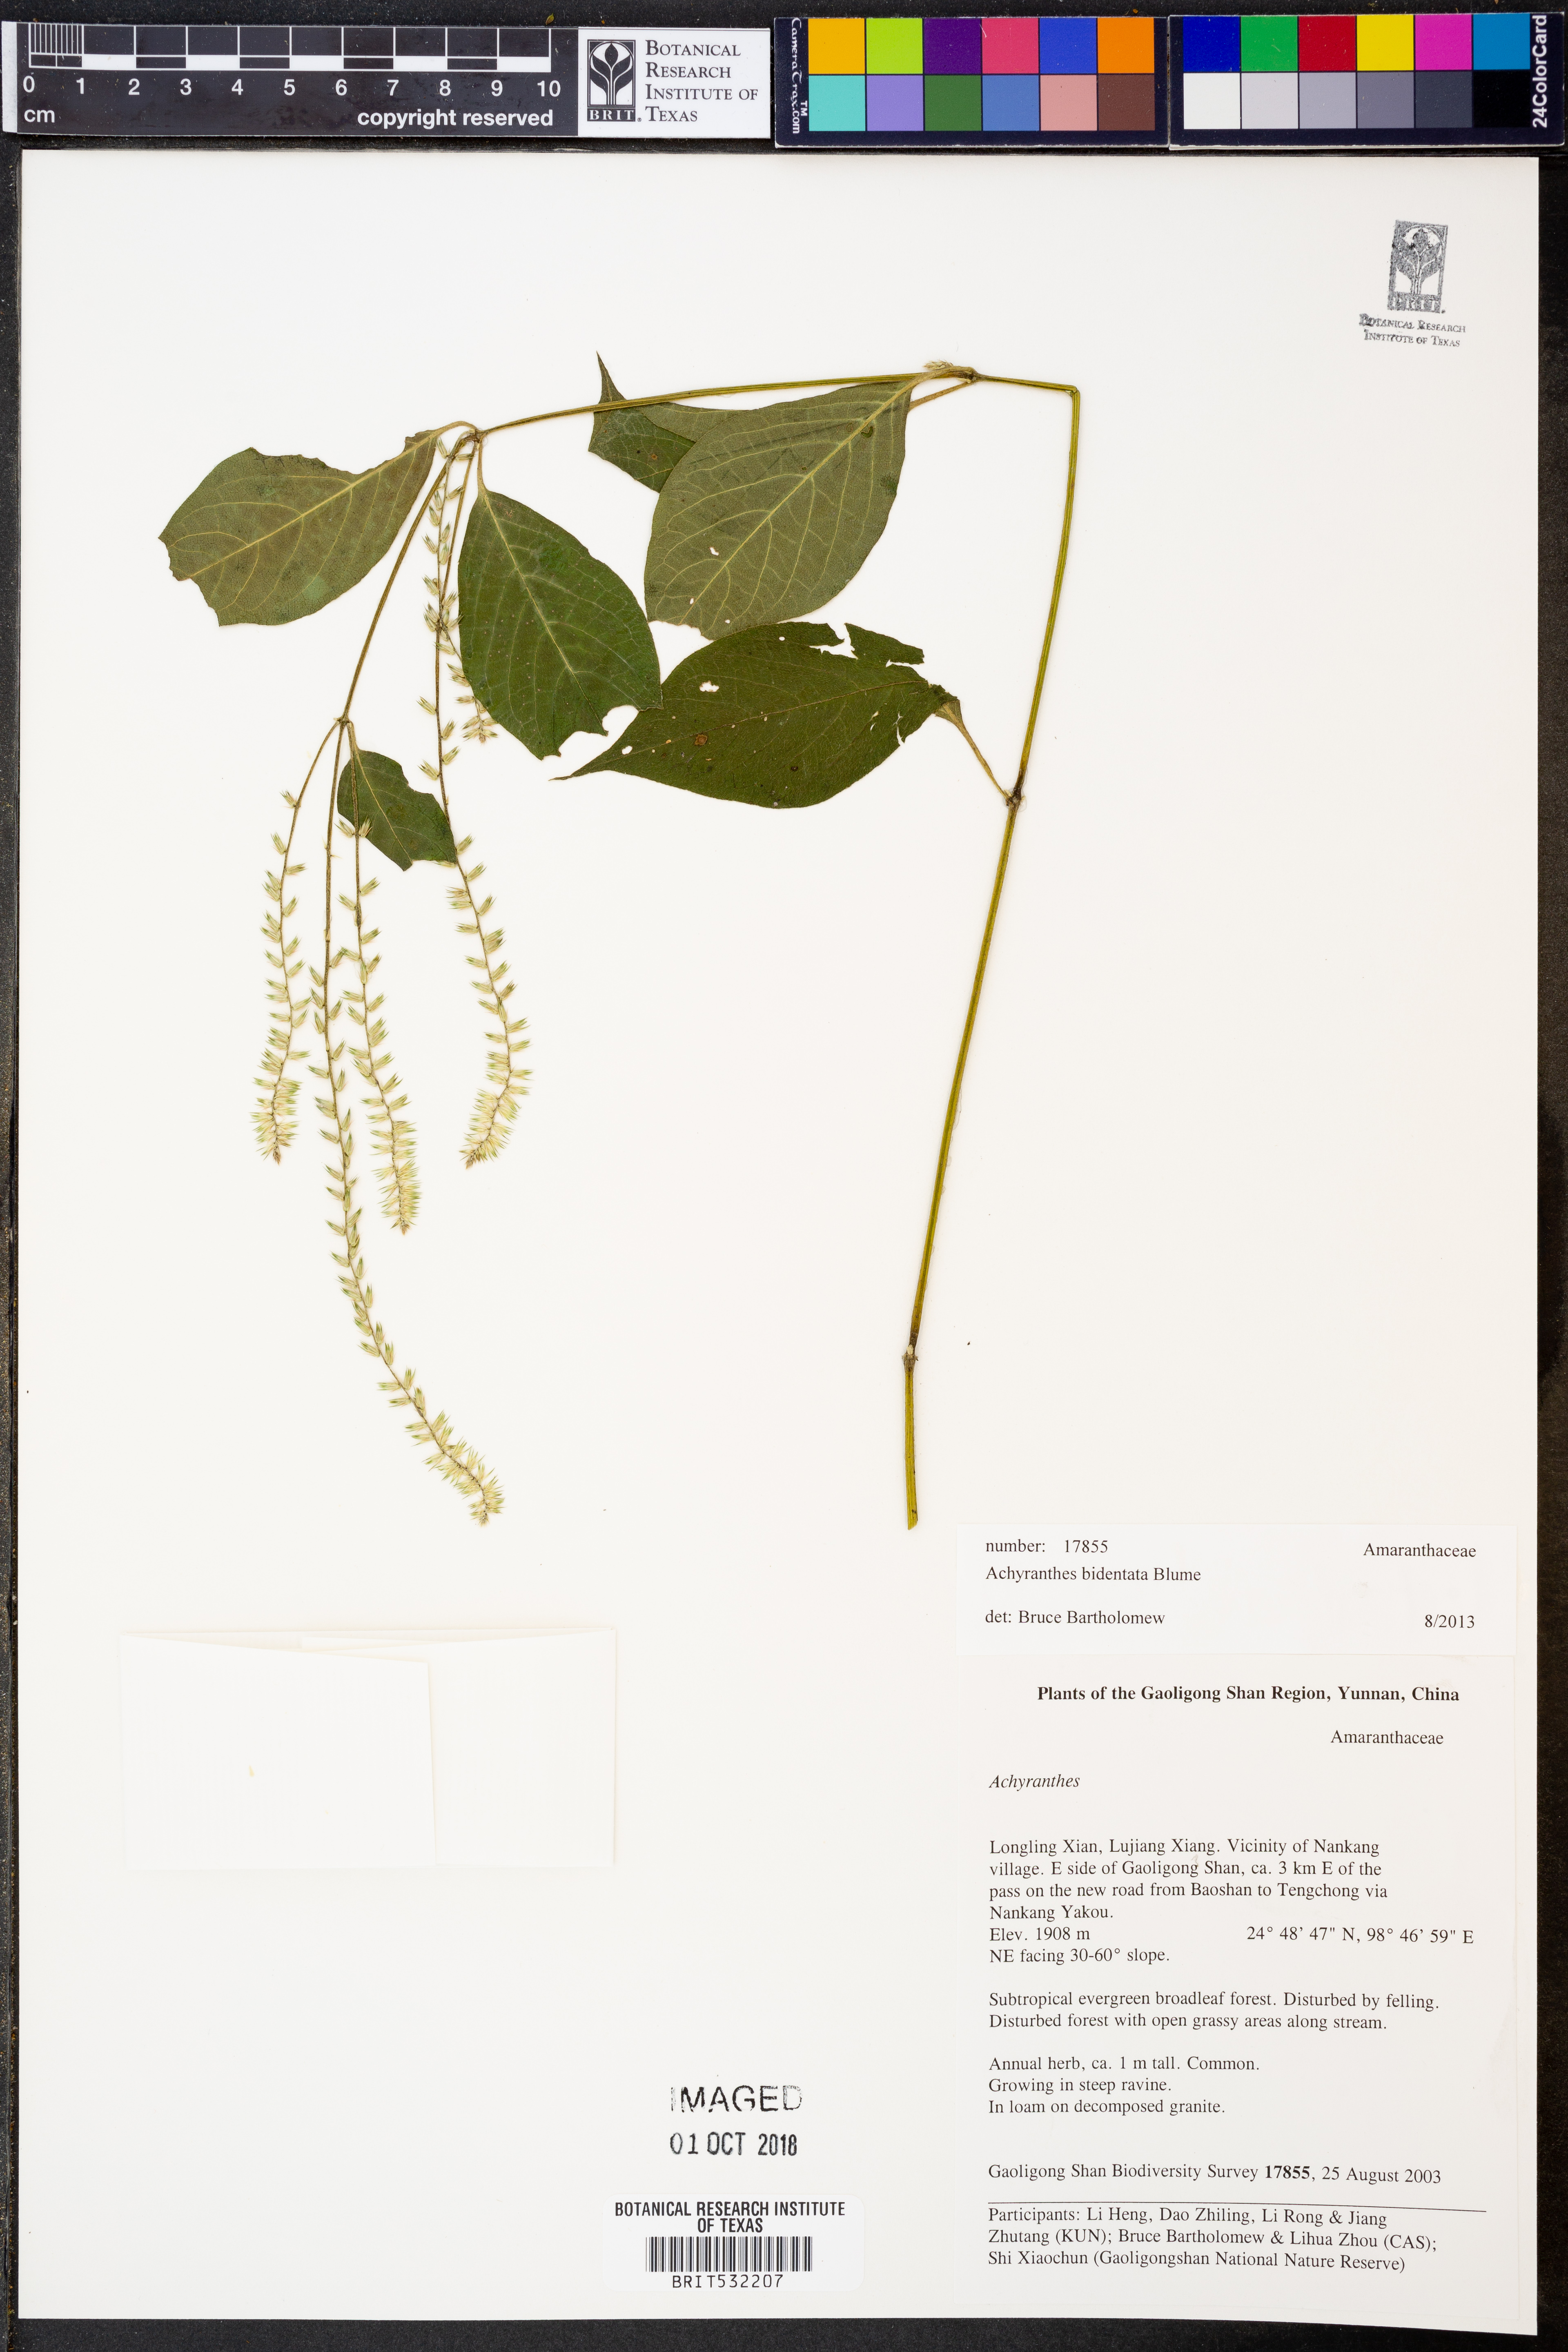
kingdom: Plantae
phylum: Tracheophyta
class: Magnoliopsida
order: Caryophyllales
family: Amaranthaceae
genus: Achyranthes
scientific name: Achyranthes bidentata
